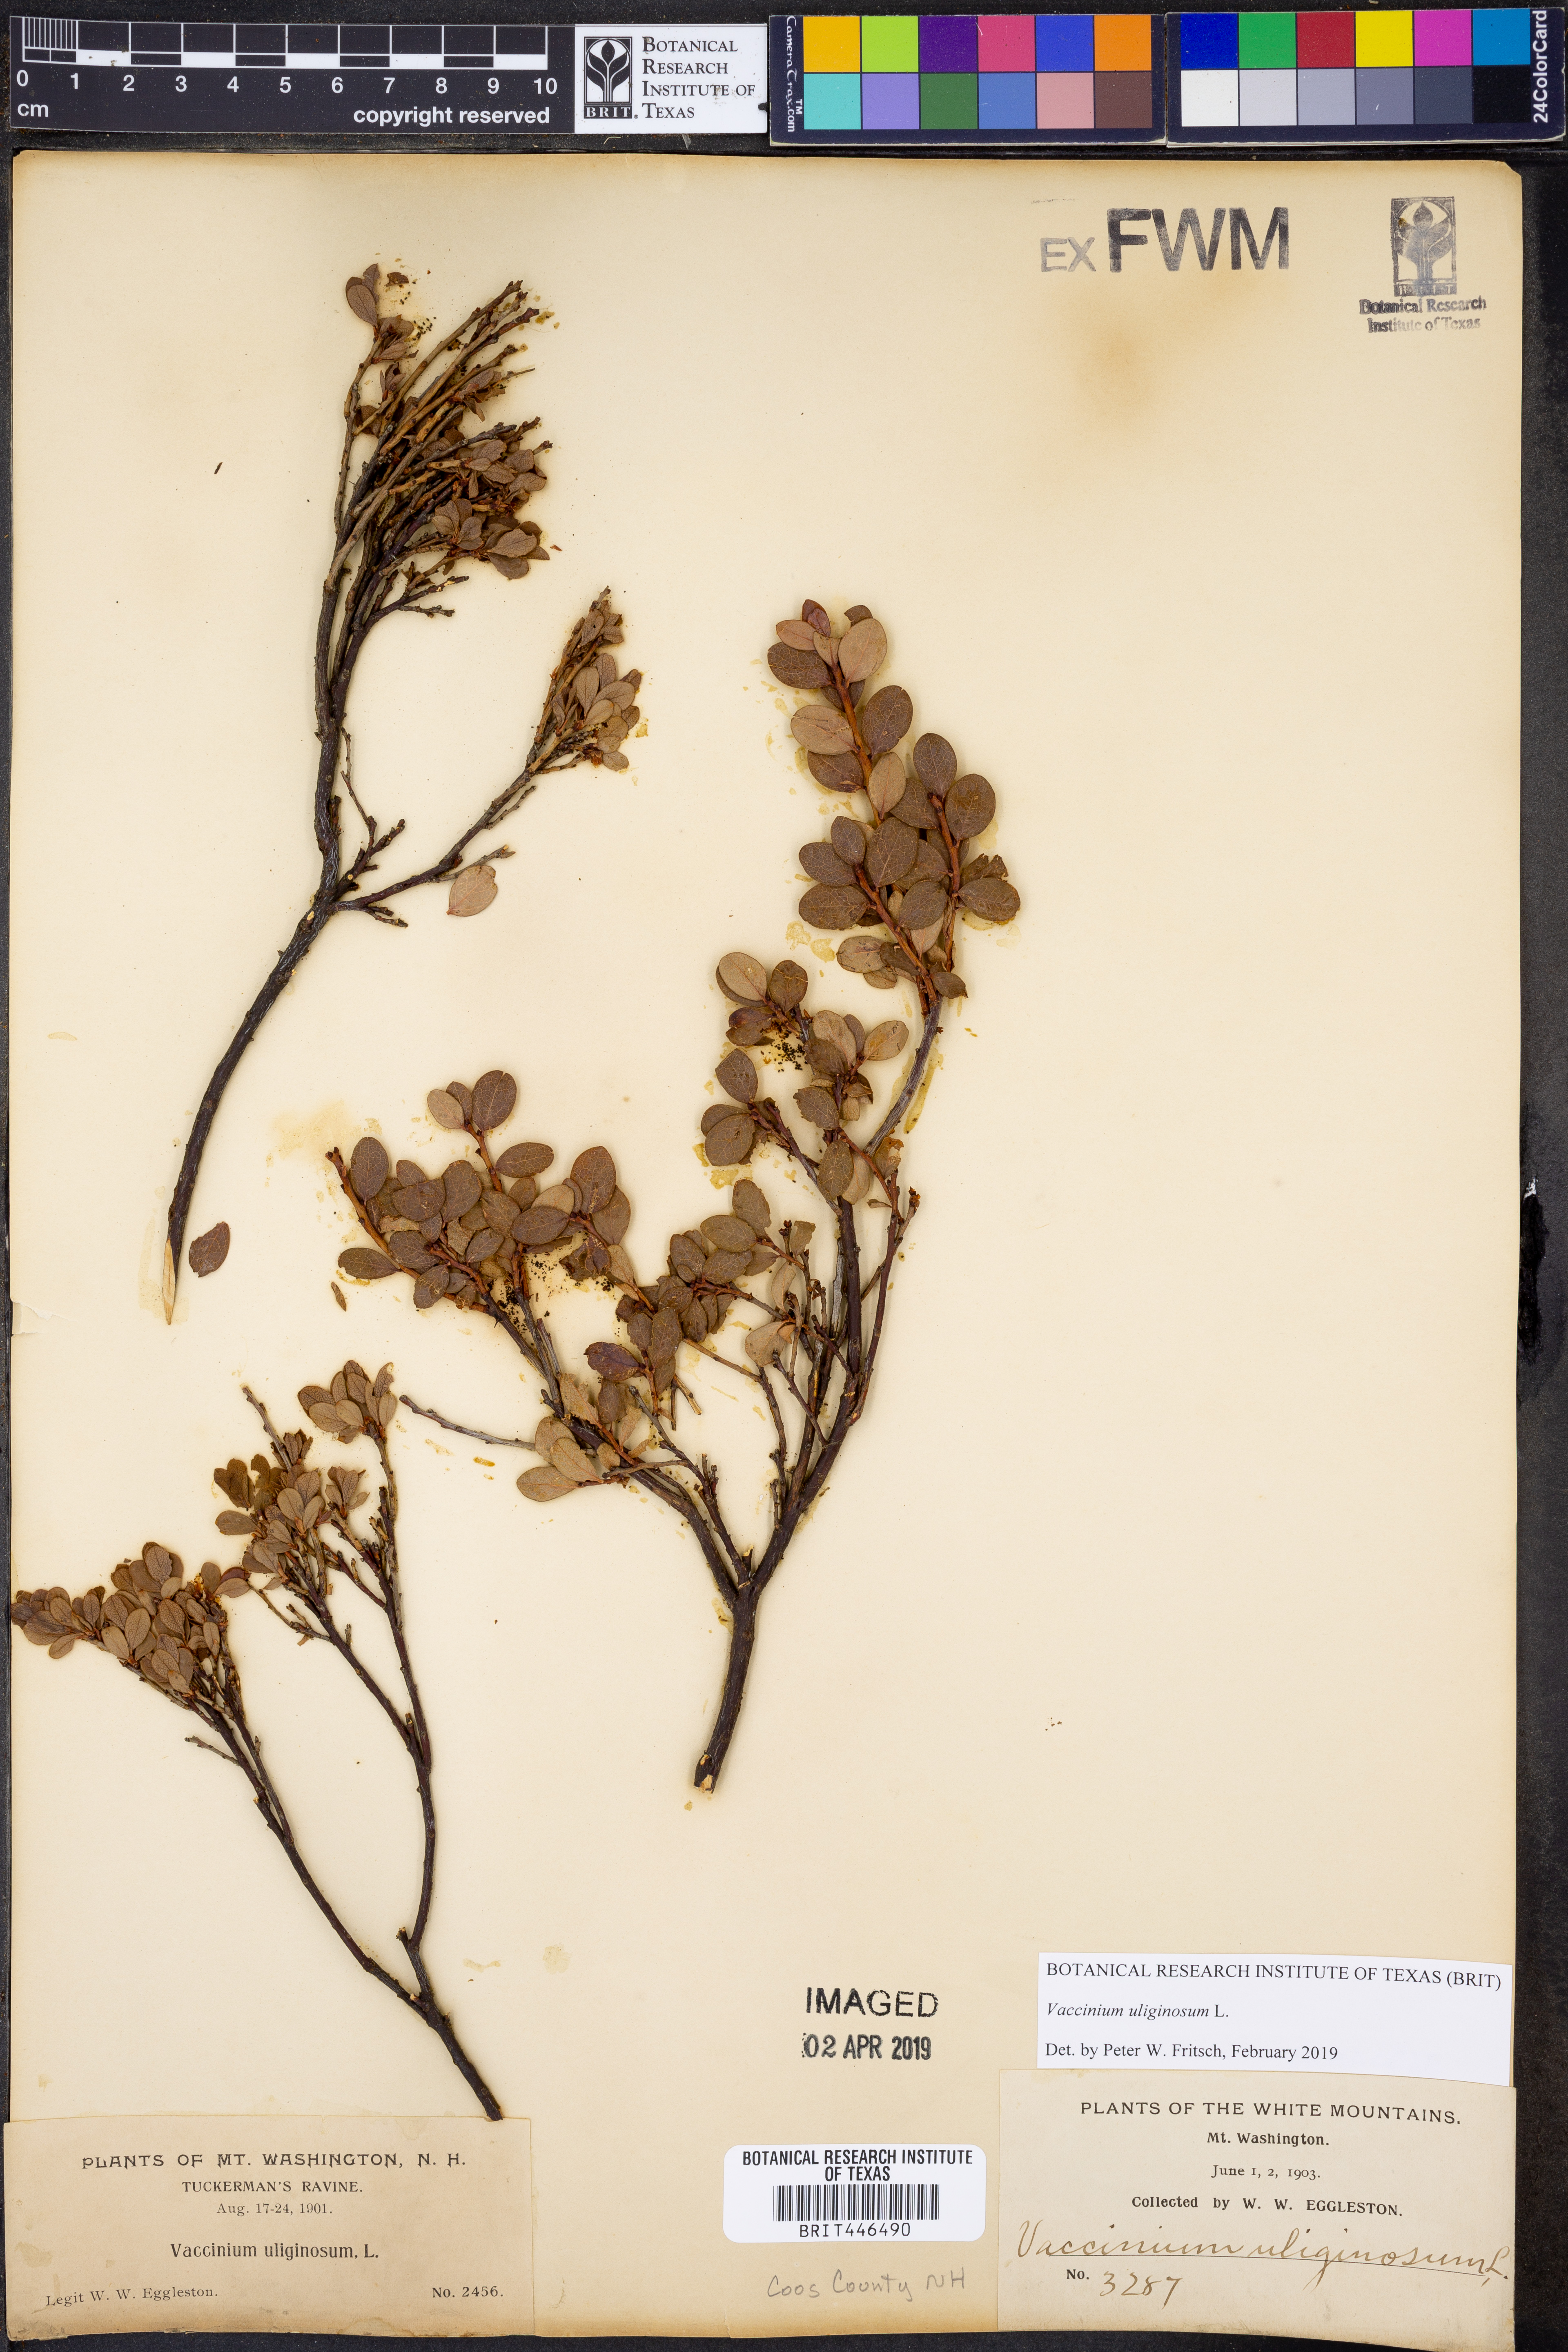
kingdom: Plantae
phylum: Tracheophyta
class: Magnoliopsida
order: Ericales
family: Ericaceae
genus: Vaccinium
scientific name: Vaccinium uliginosum
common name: Bog bilberry
